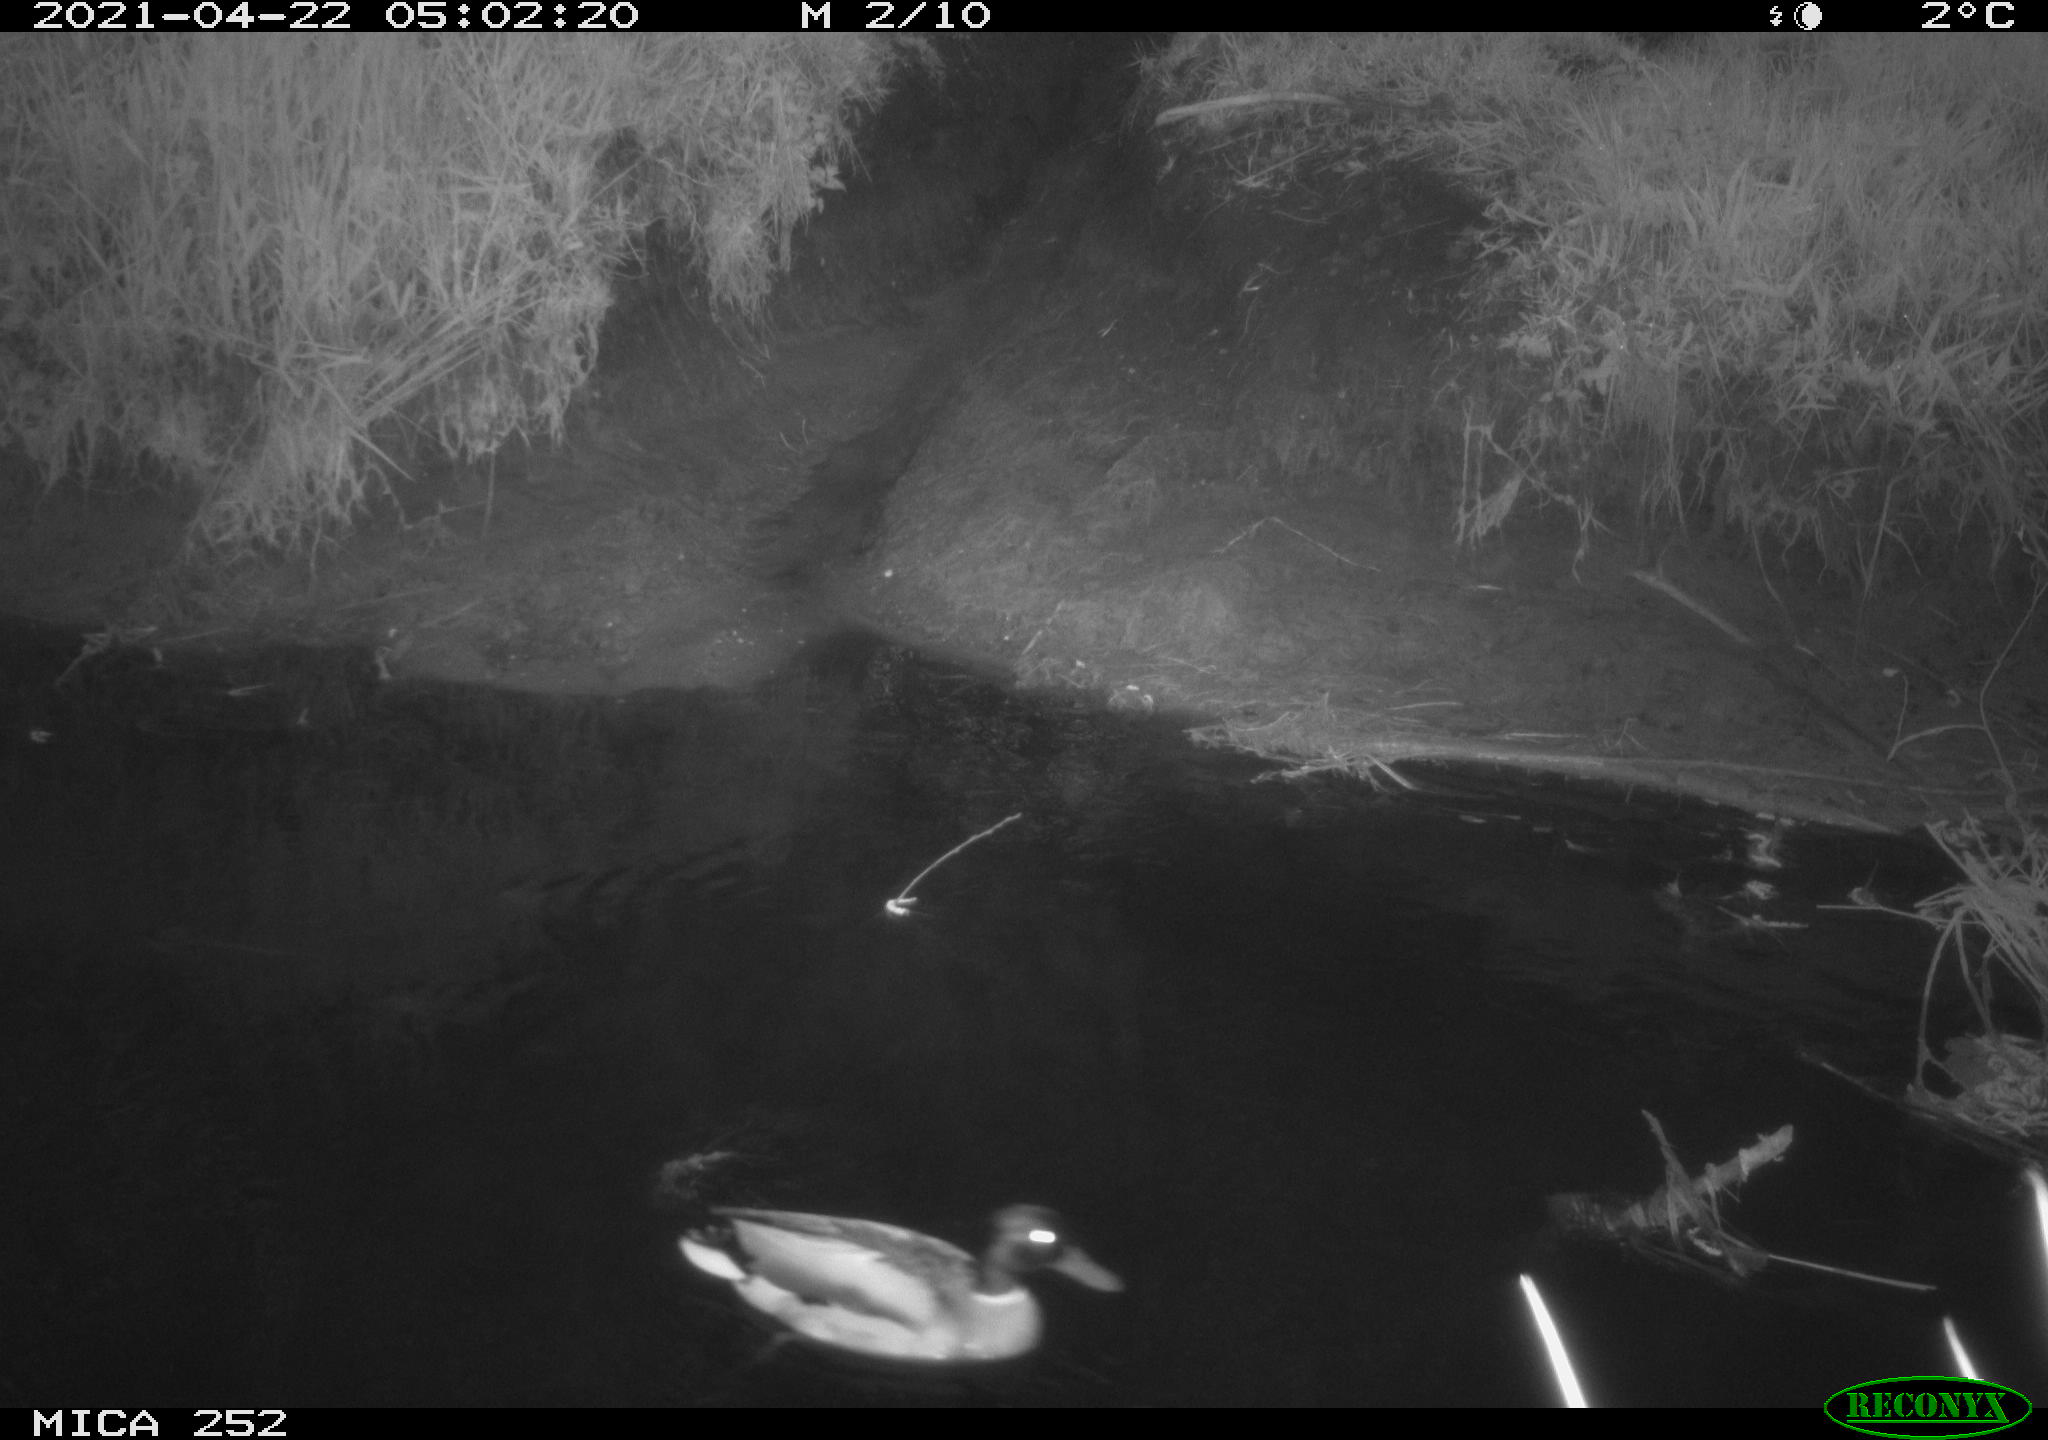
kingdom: Animalia
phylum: Chordata
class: Aves
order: Anseriformes
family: Anatidae
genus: Anas
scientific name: Anas platyrhynchos
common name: Mallard
